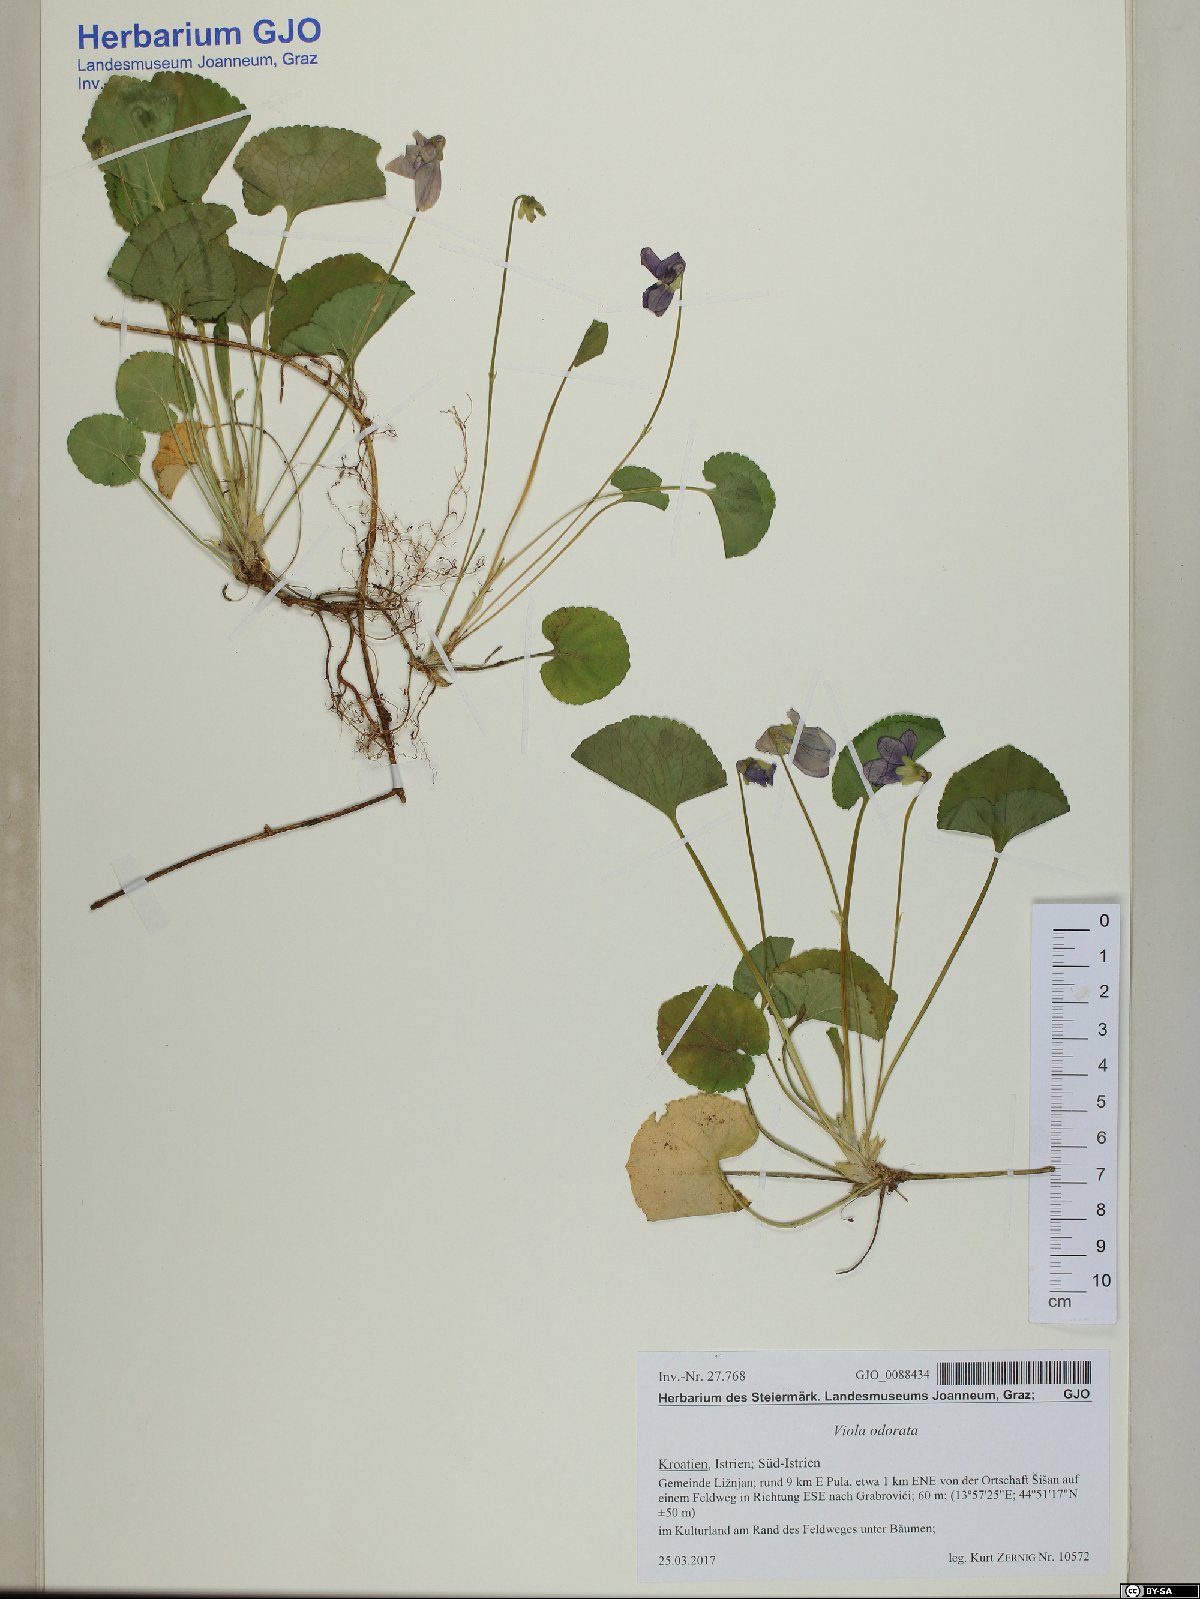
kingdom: Plantae
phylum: Tracheophyta
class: Magnoliopsida
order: Malpighiales
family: Violaceae
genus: Viola
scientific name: Viola odorata
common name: Sweet violet
